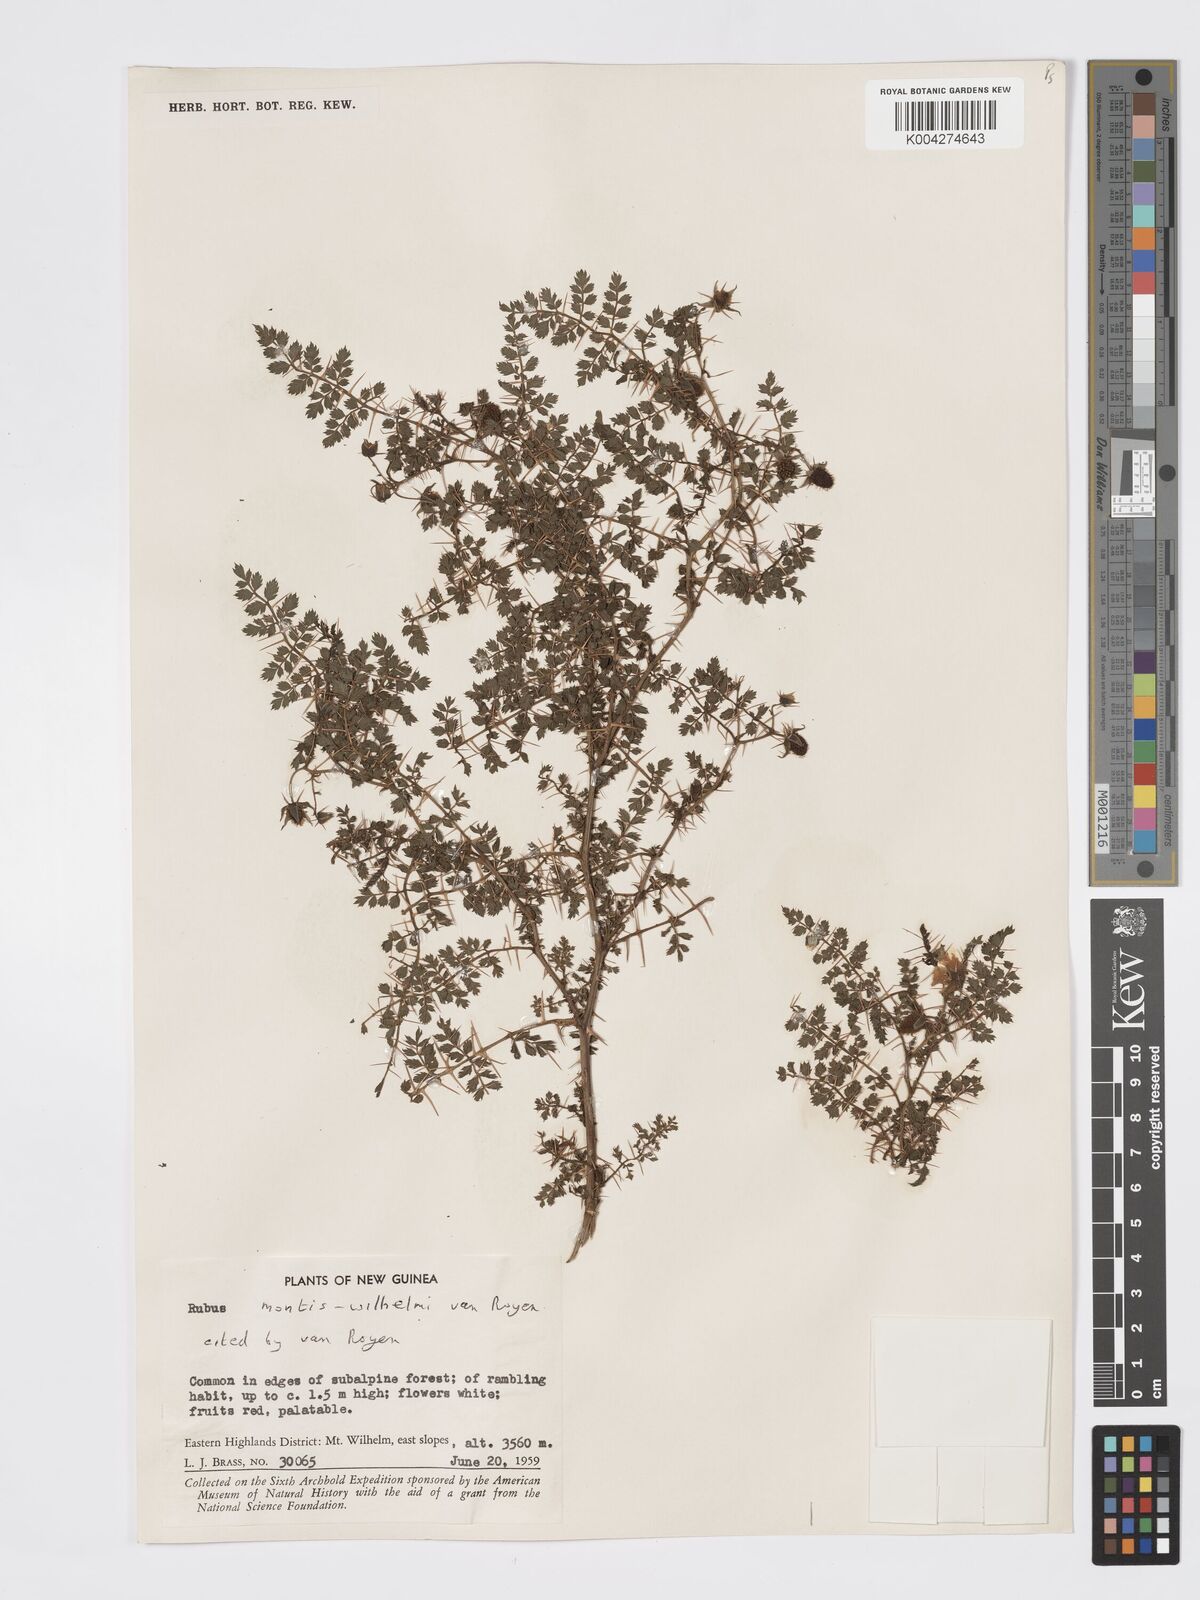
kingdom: Plantae
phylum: Tracheophyta
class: Magnoliopsida
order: Rosales
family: Rosaceae
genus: Rubus
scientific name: Rubus montis-wilhelmii
